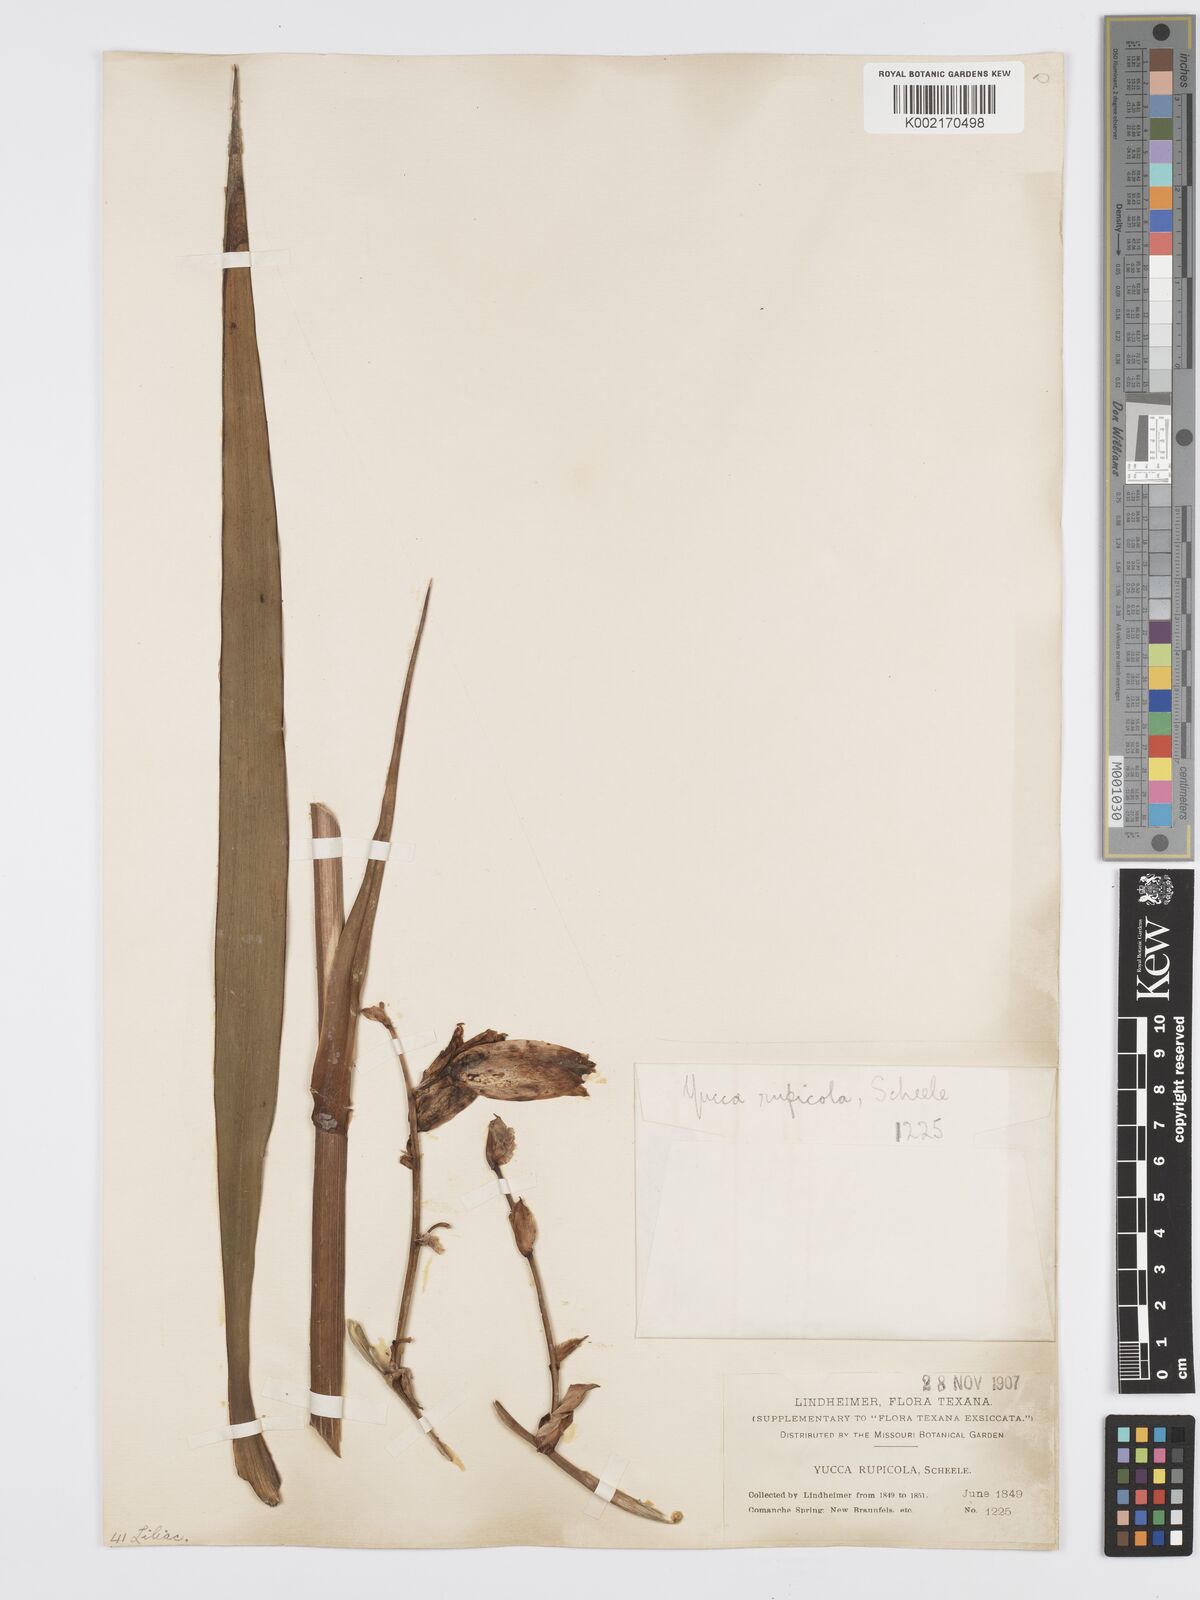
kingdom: Plantae
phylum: Tracheophyta
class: Liliopsida
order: Asparagales
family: Asparagaceae
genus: Yucca
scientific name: Yucca rupicola
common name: Twisted-leaf spanish-dagger
